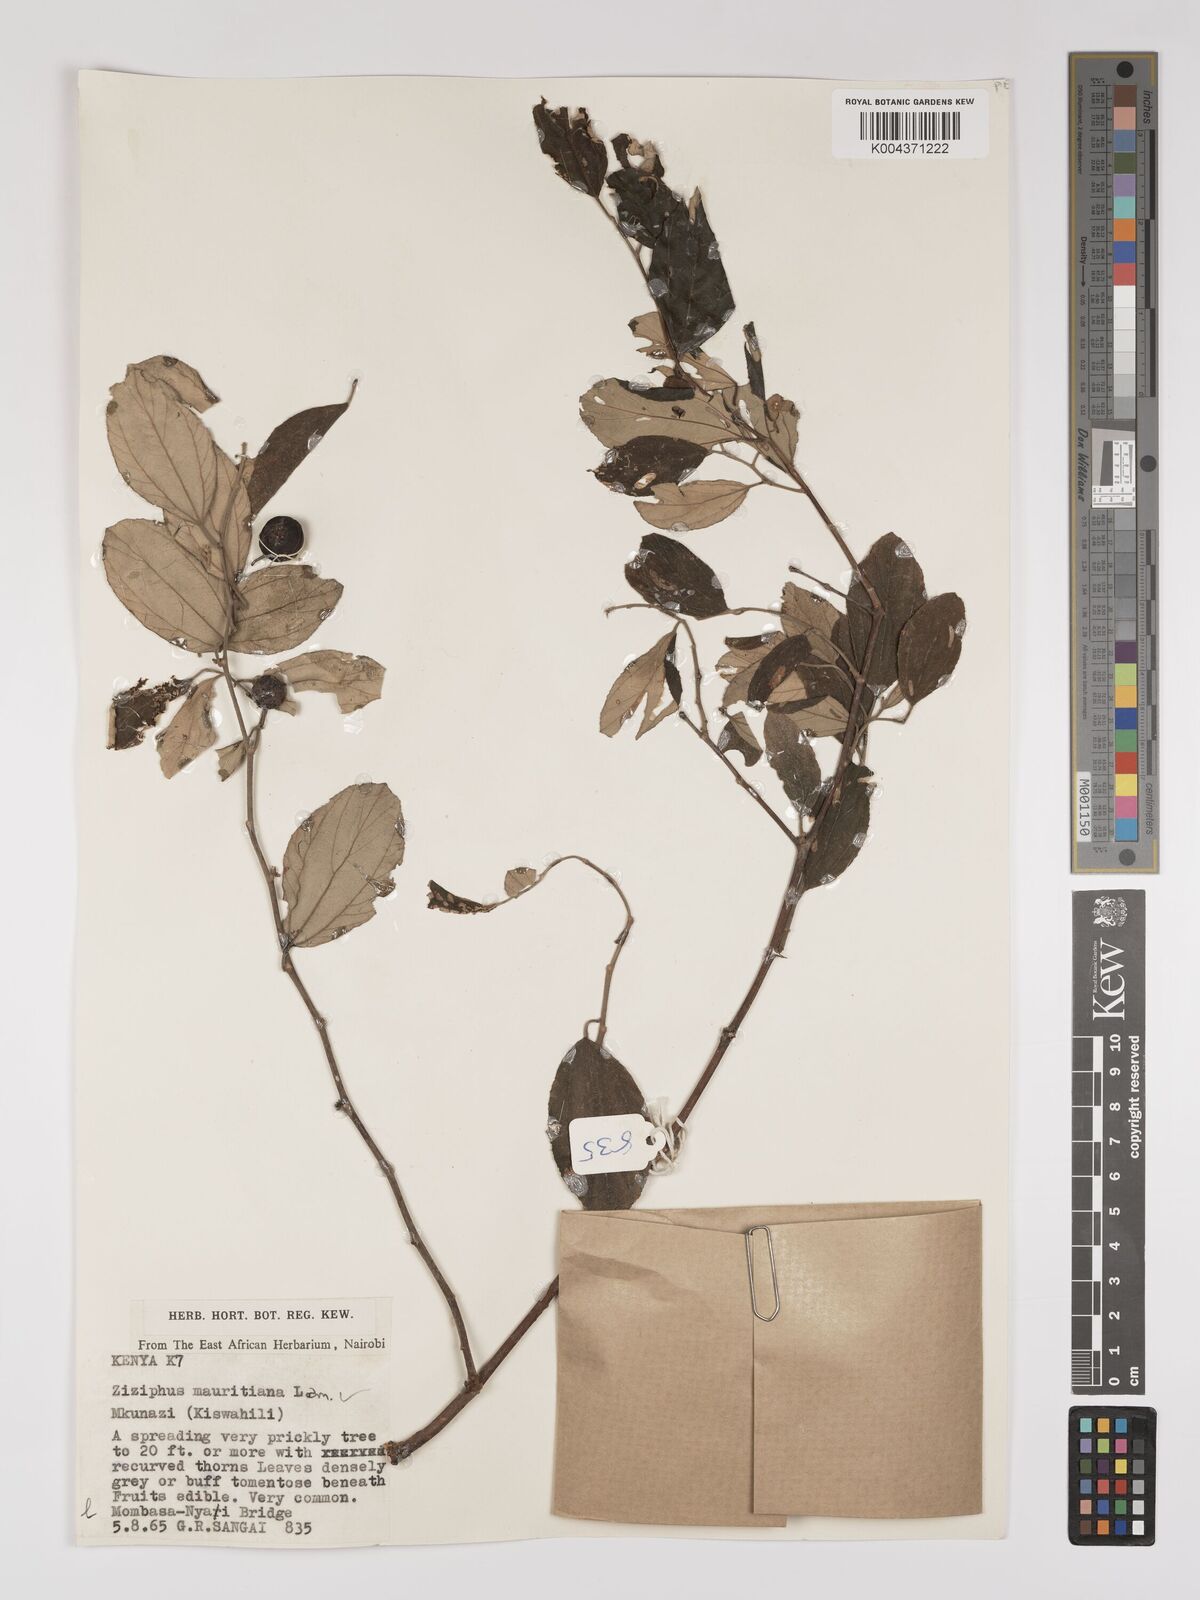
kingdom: Plantae
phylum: Tracheophyta
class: Magnoliopsida
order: Rosales
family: Rhamnaceae
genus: Ziziphus
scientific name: Ziziphus mauritiana
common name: Indian jujube
